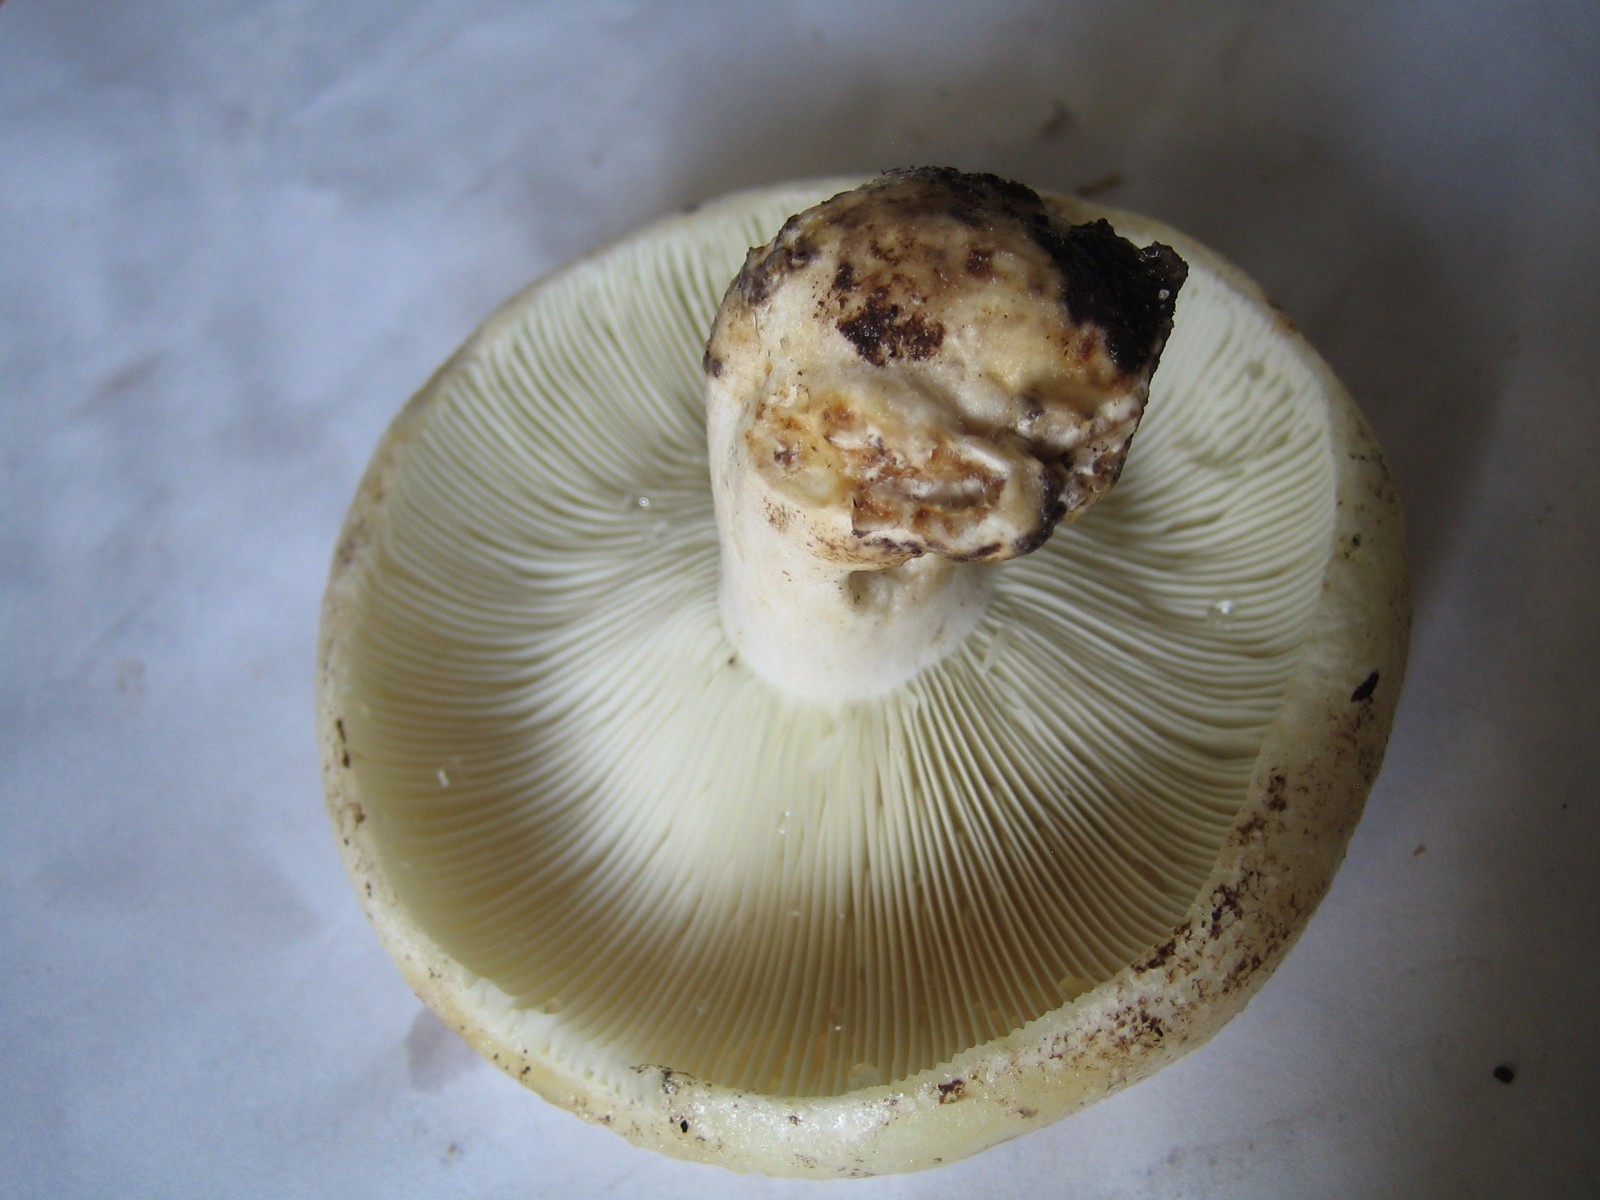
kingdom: Fungi
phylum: Basidiomycota
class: Agaricomycetes
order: Russulales
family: Russulaceae
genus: Russula
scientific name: Russula
